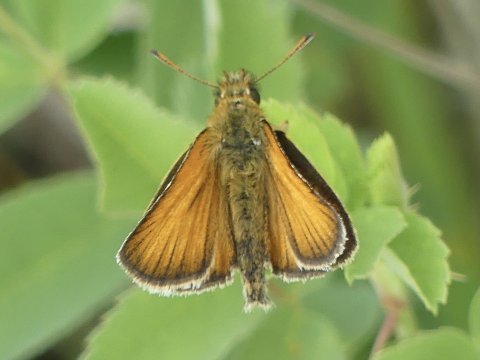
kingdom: Animalia
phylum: Arthropoda
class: Insecta
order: Lepidoptera
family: Hesperiidae
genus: Thymelicus
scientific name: Thymelicus lineola
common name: European Skipper
